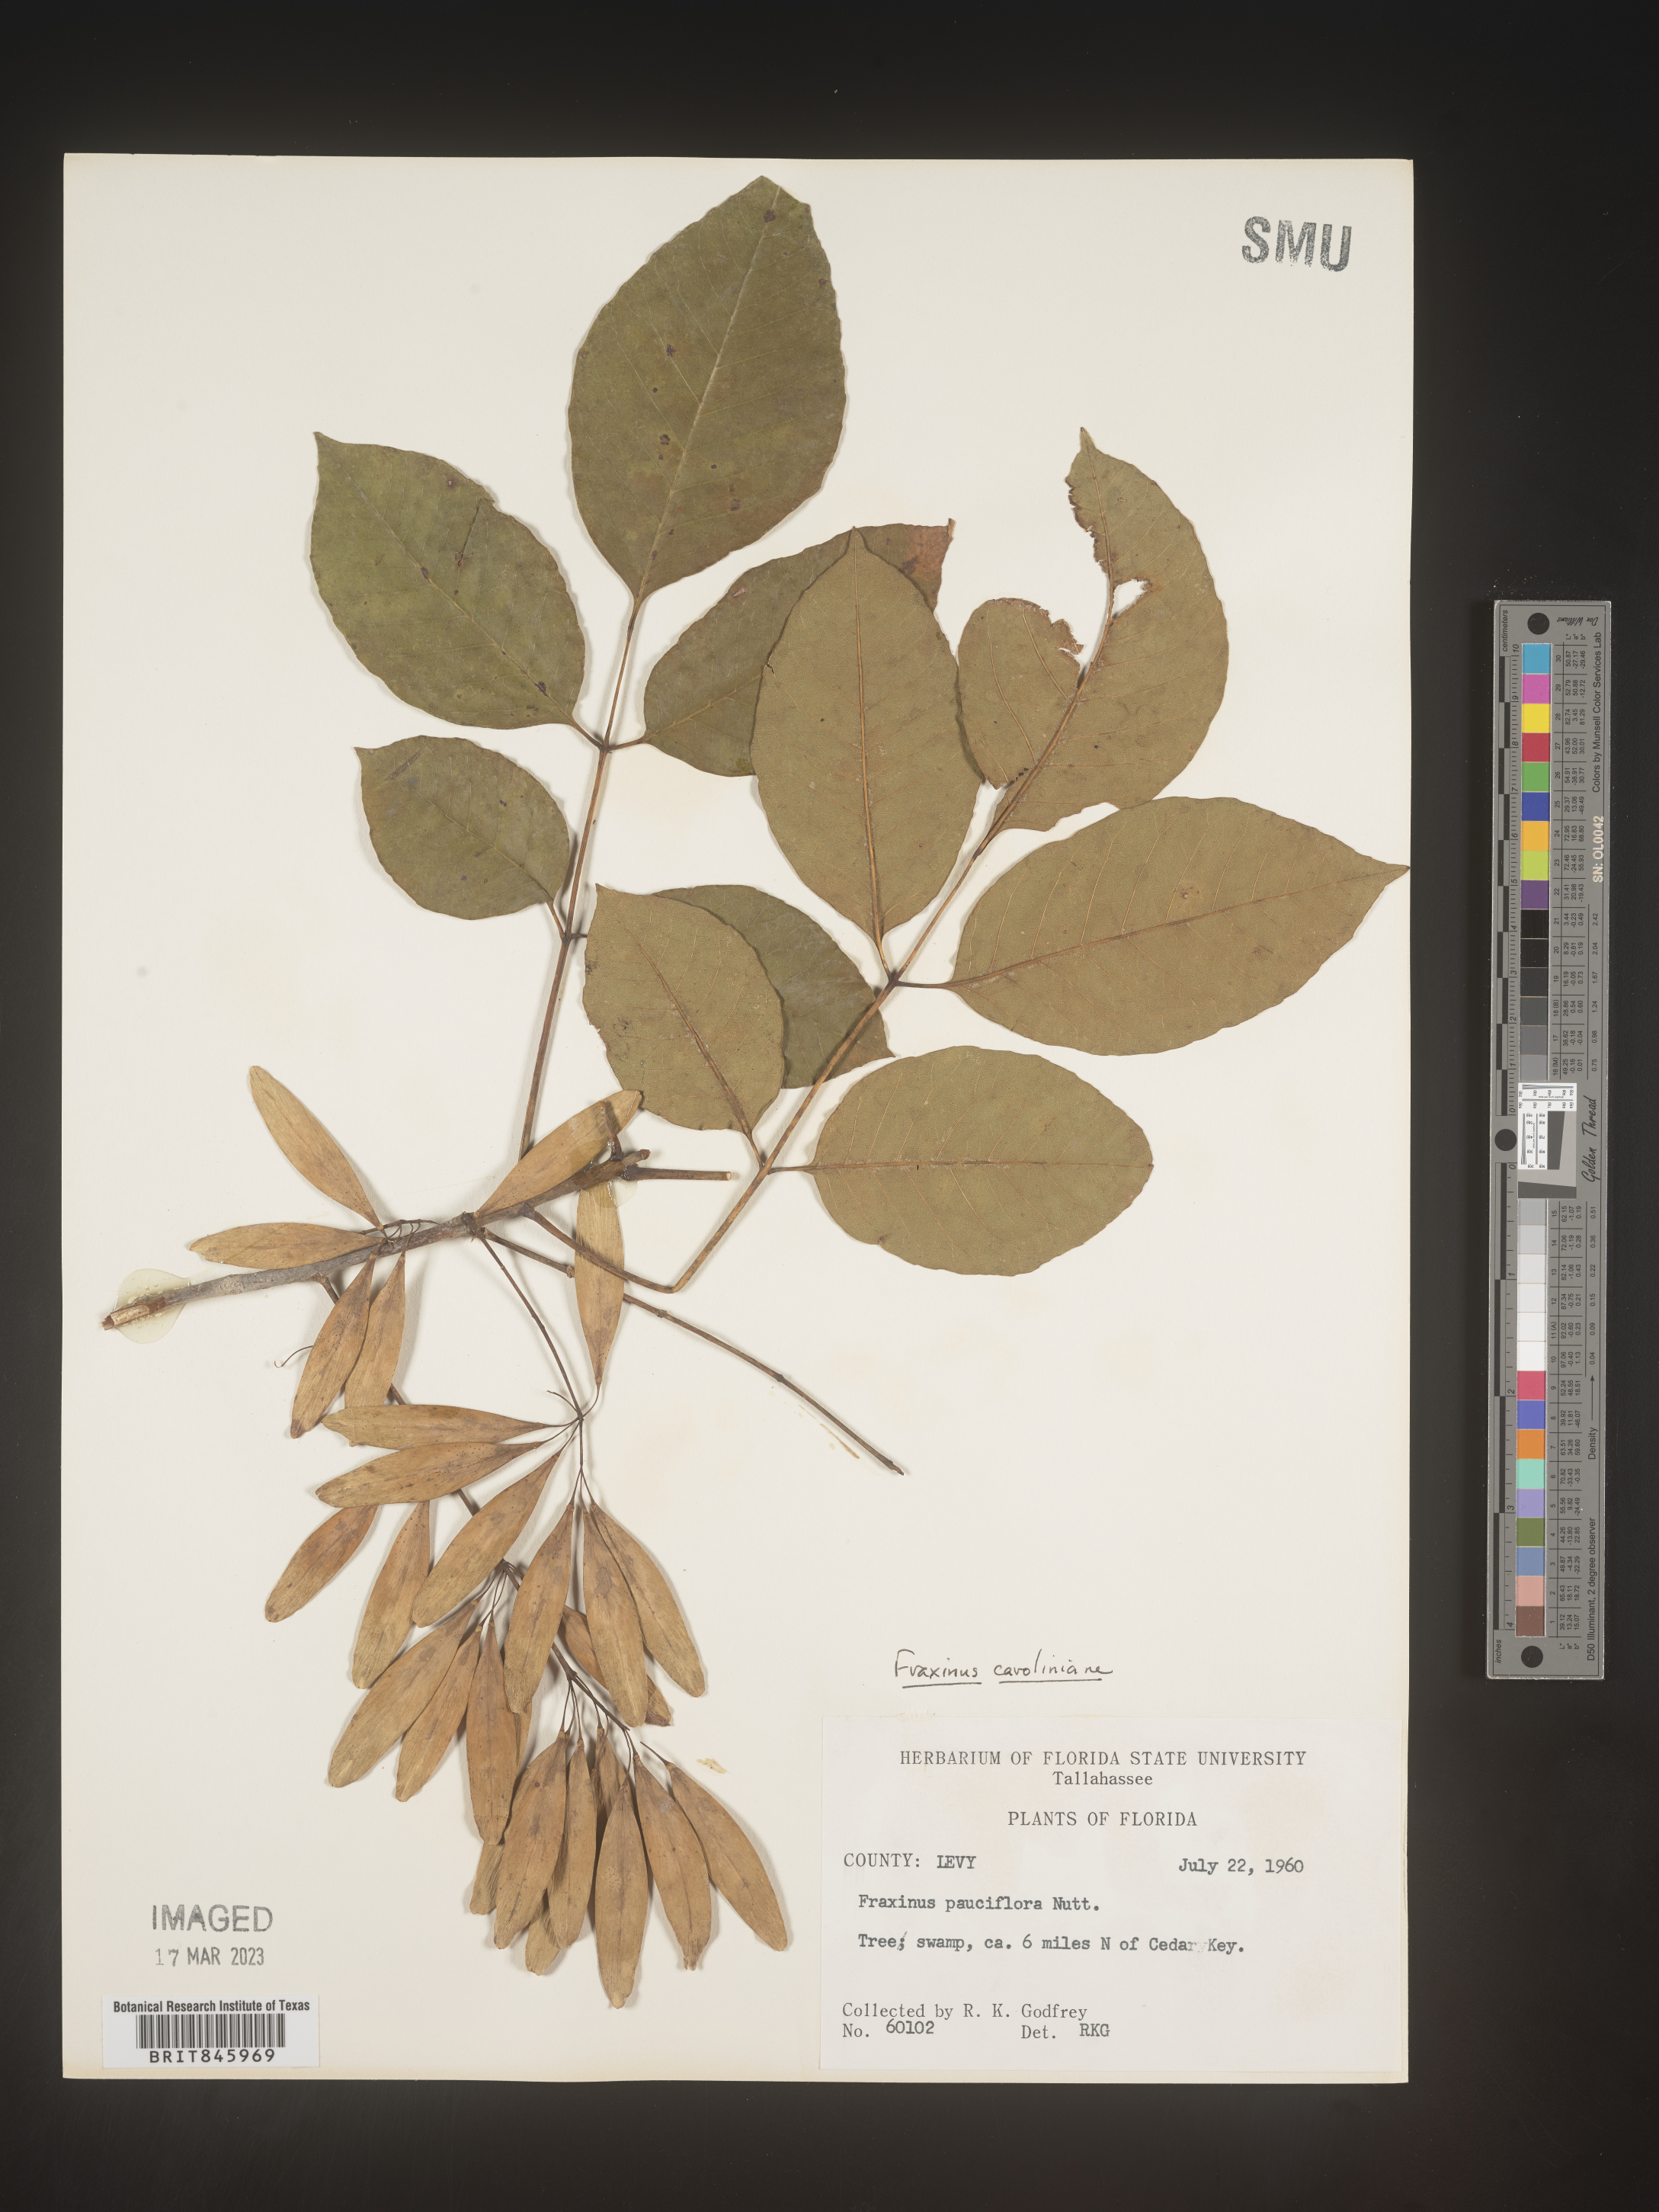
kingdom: Plantae
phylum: Tracheophyta
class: Magnoliopsida
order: Lamiales
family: Oleaceae
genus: Fraxinus
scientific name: Fraxinus caroliniana
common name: Carolina ash
